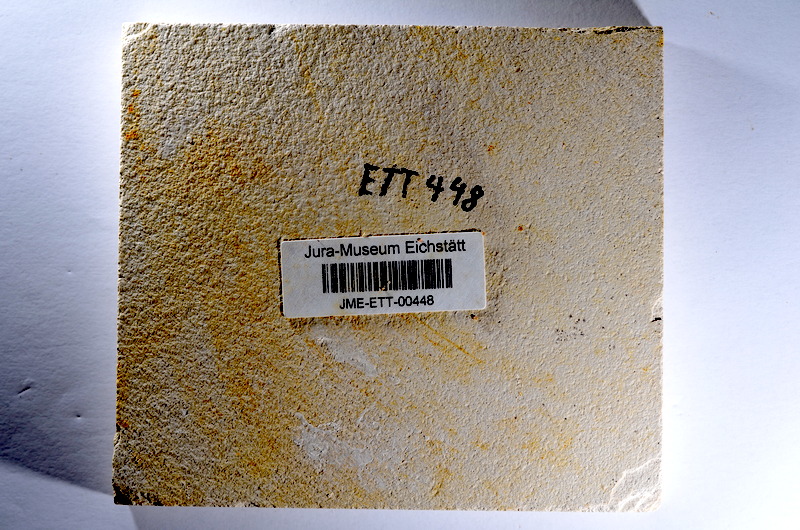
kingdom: Animalia
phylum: Chordata
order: Salmoniformes
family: Orthogonikleithridae
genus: Orthogonikleithrus
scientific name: Orthogonikleithrus hoelli
